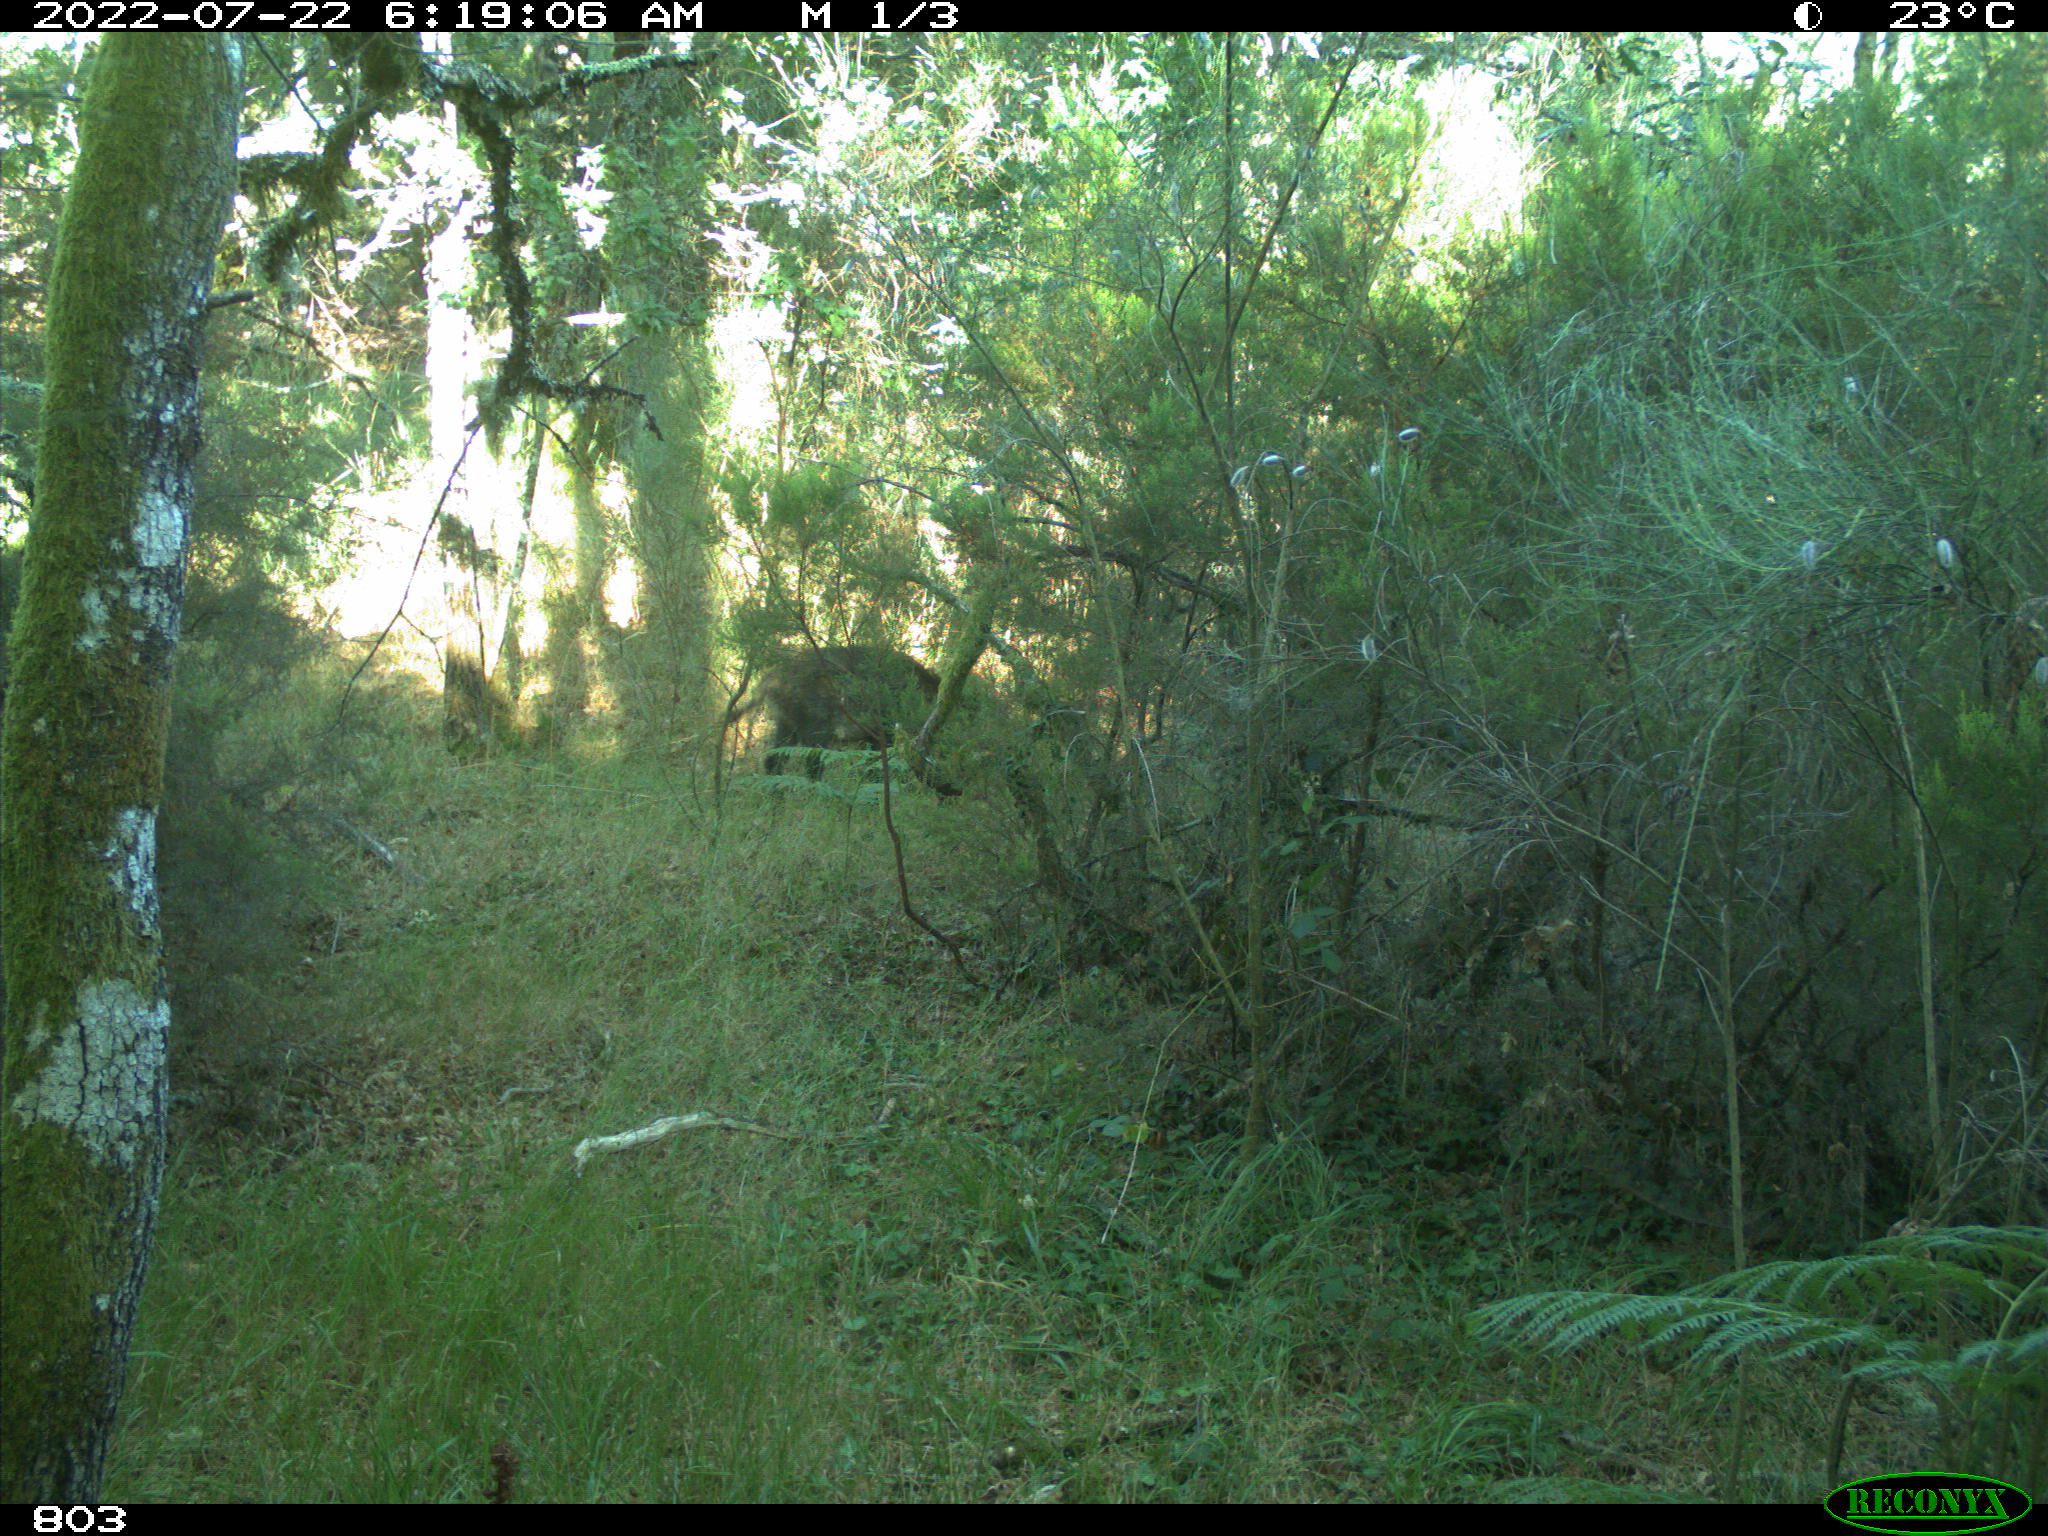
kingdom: Animalia
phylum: Chordata
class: Mammalia
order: Artiodactyla
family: Suidae
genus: Sus
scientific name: Sus scrofa
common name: Wild boar
